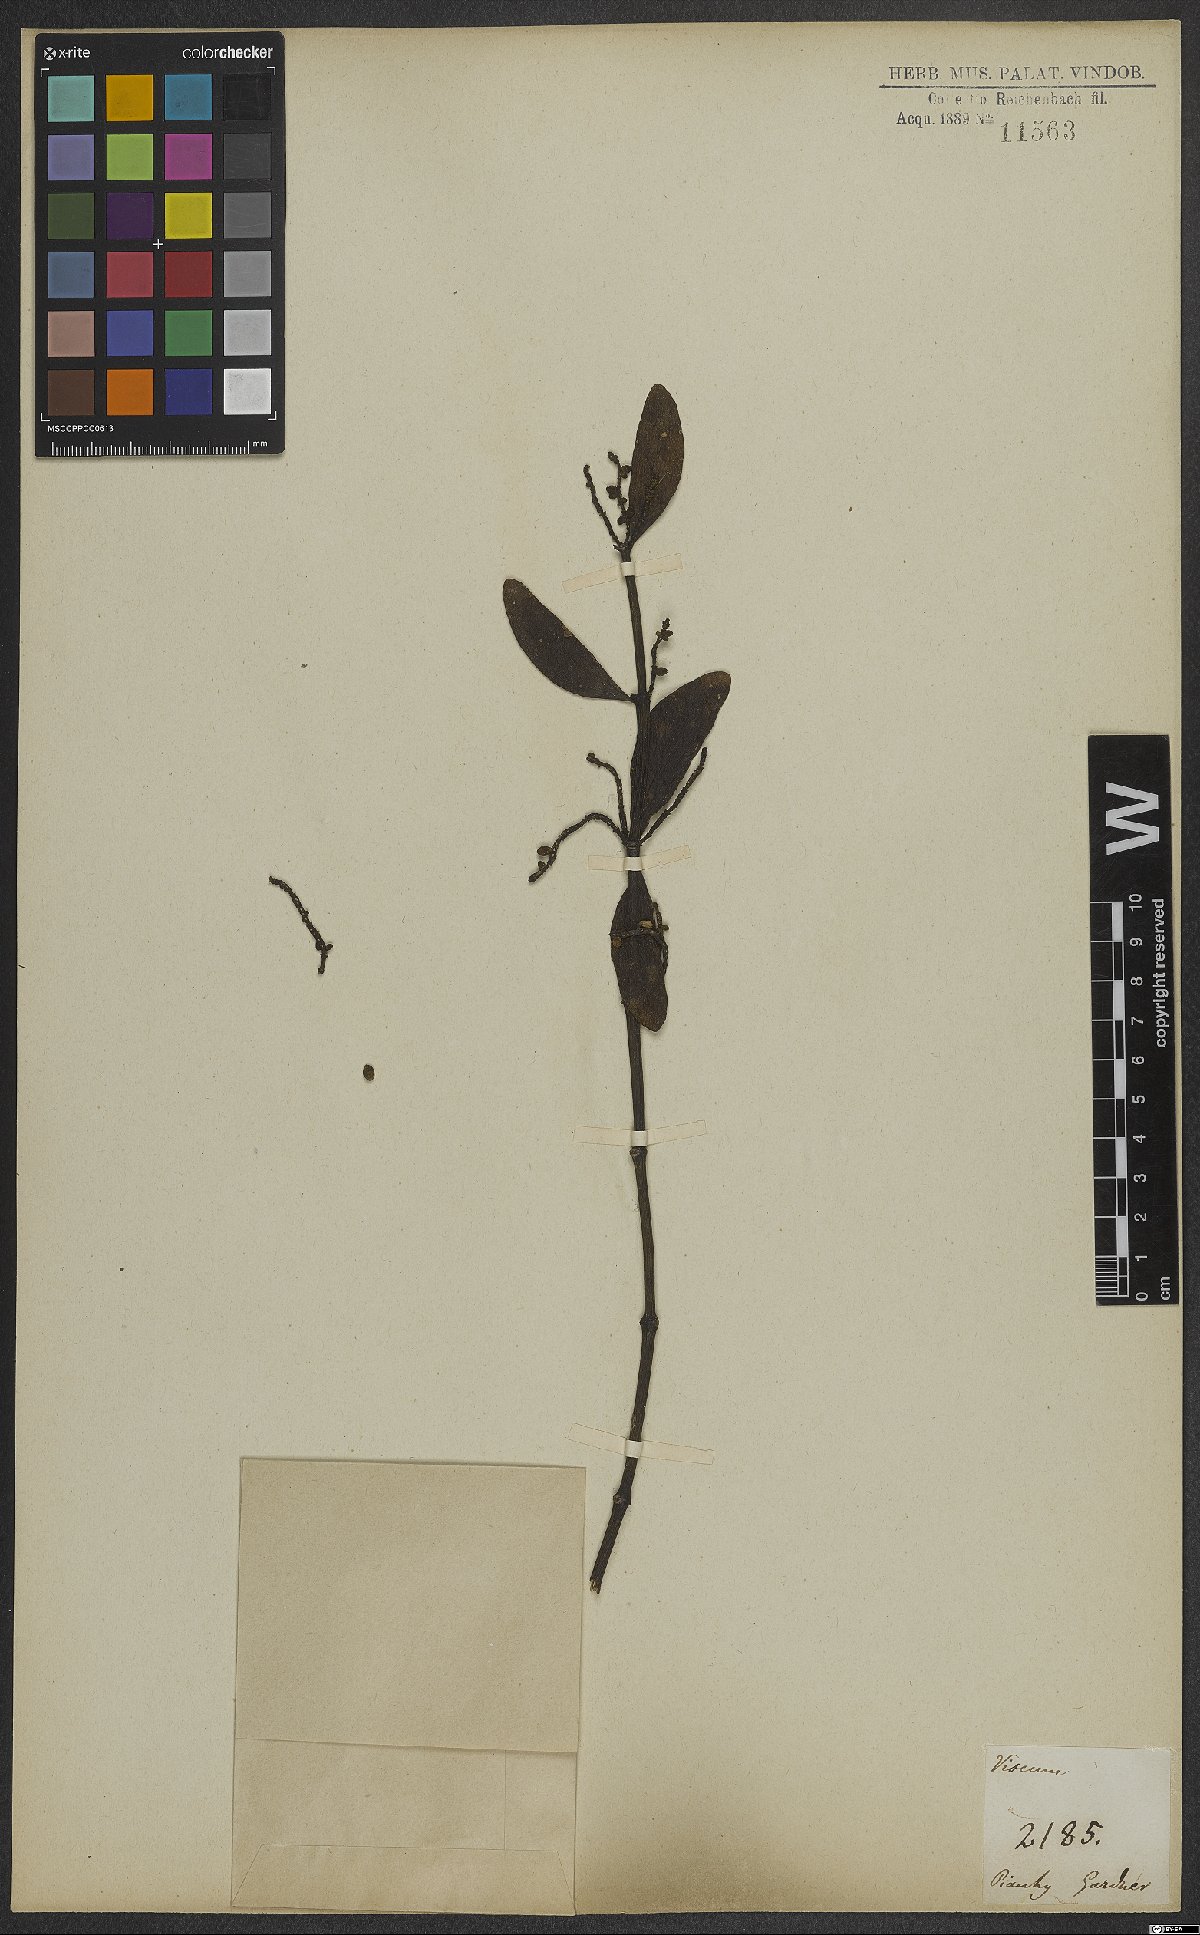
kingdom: Plantae
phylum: Tracheophyta
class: Magnoliopsida
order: Santalales
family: Viscaceae
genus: Viscum
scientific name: Viscum
